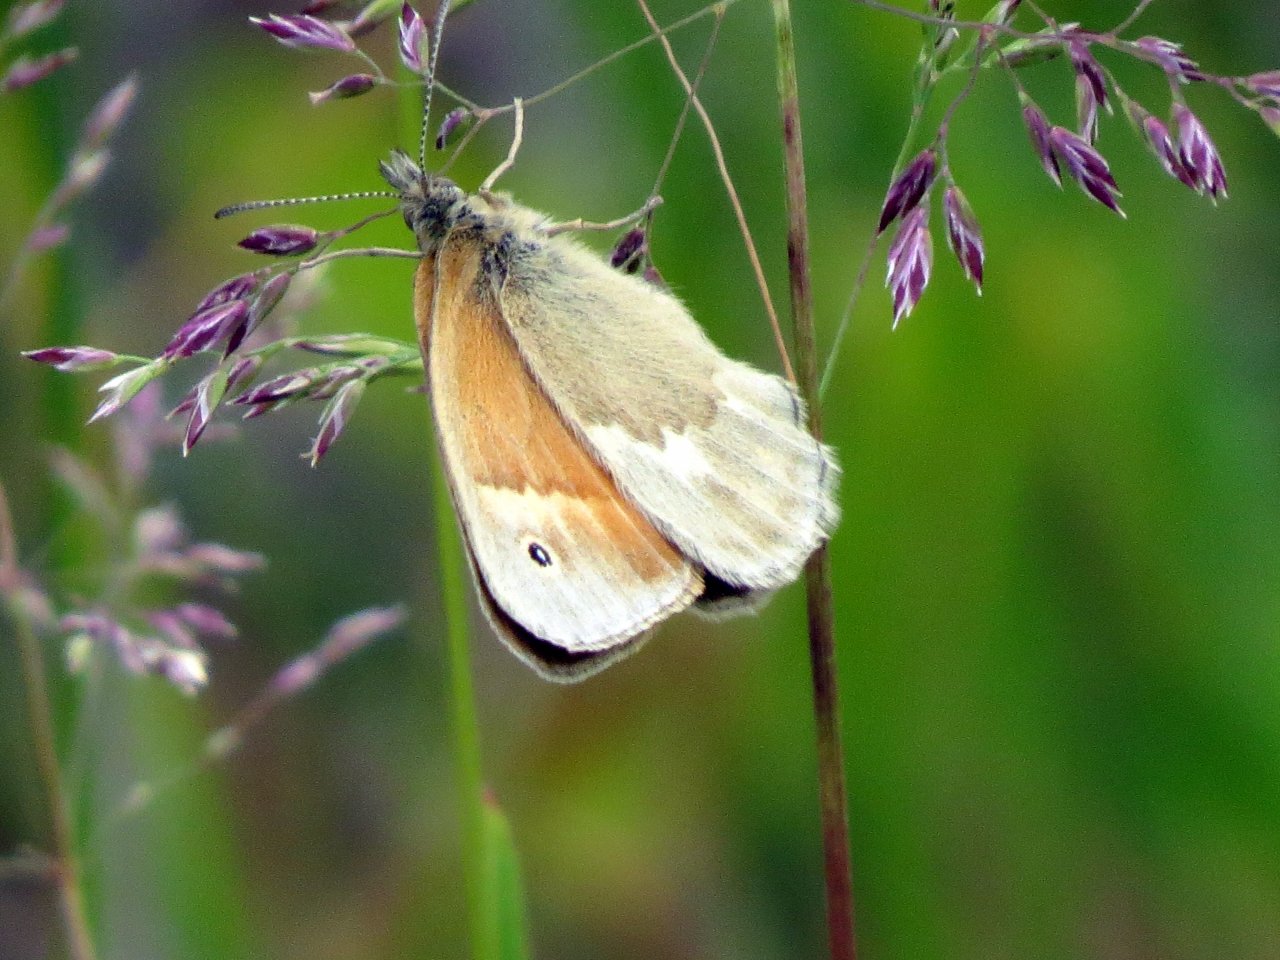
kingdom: Animalia
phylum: Arthropoda
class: Insecta
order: Lepidoptera
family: Nymphalidae
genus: Coenonympha
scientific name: Coenonympha tullia
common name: Large Heath
